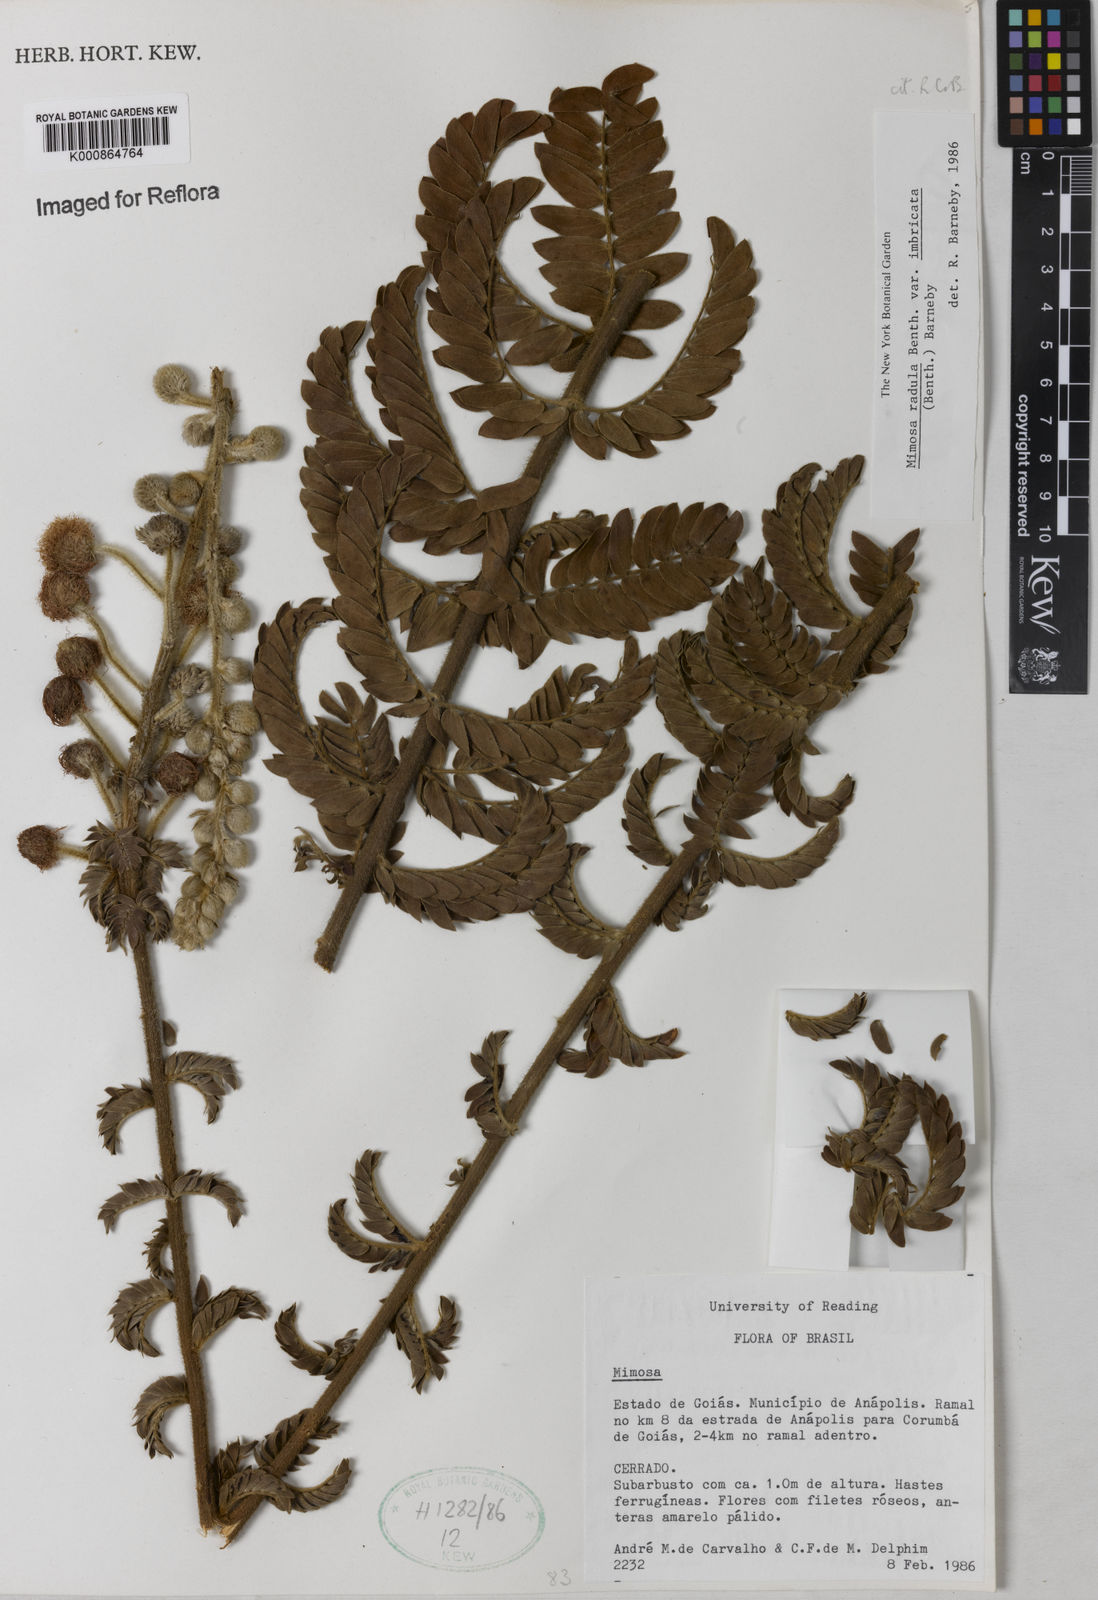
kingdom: Plantae
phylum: Tracheophyta
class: Magnoliopsida
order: Fabales
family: Fabaceae
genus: Mimosa
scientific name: Mimosa radula
